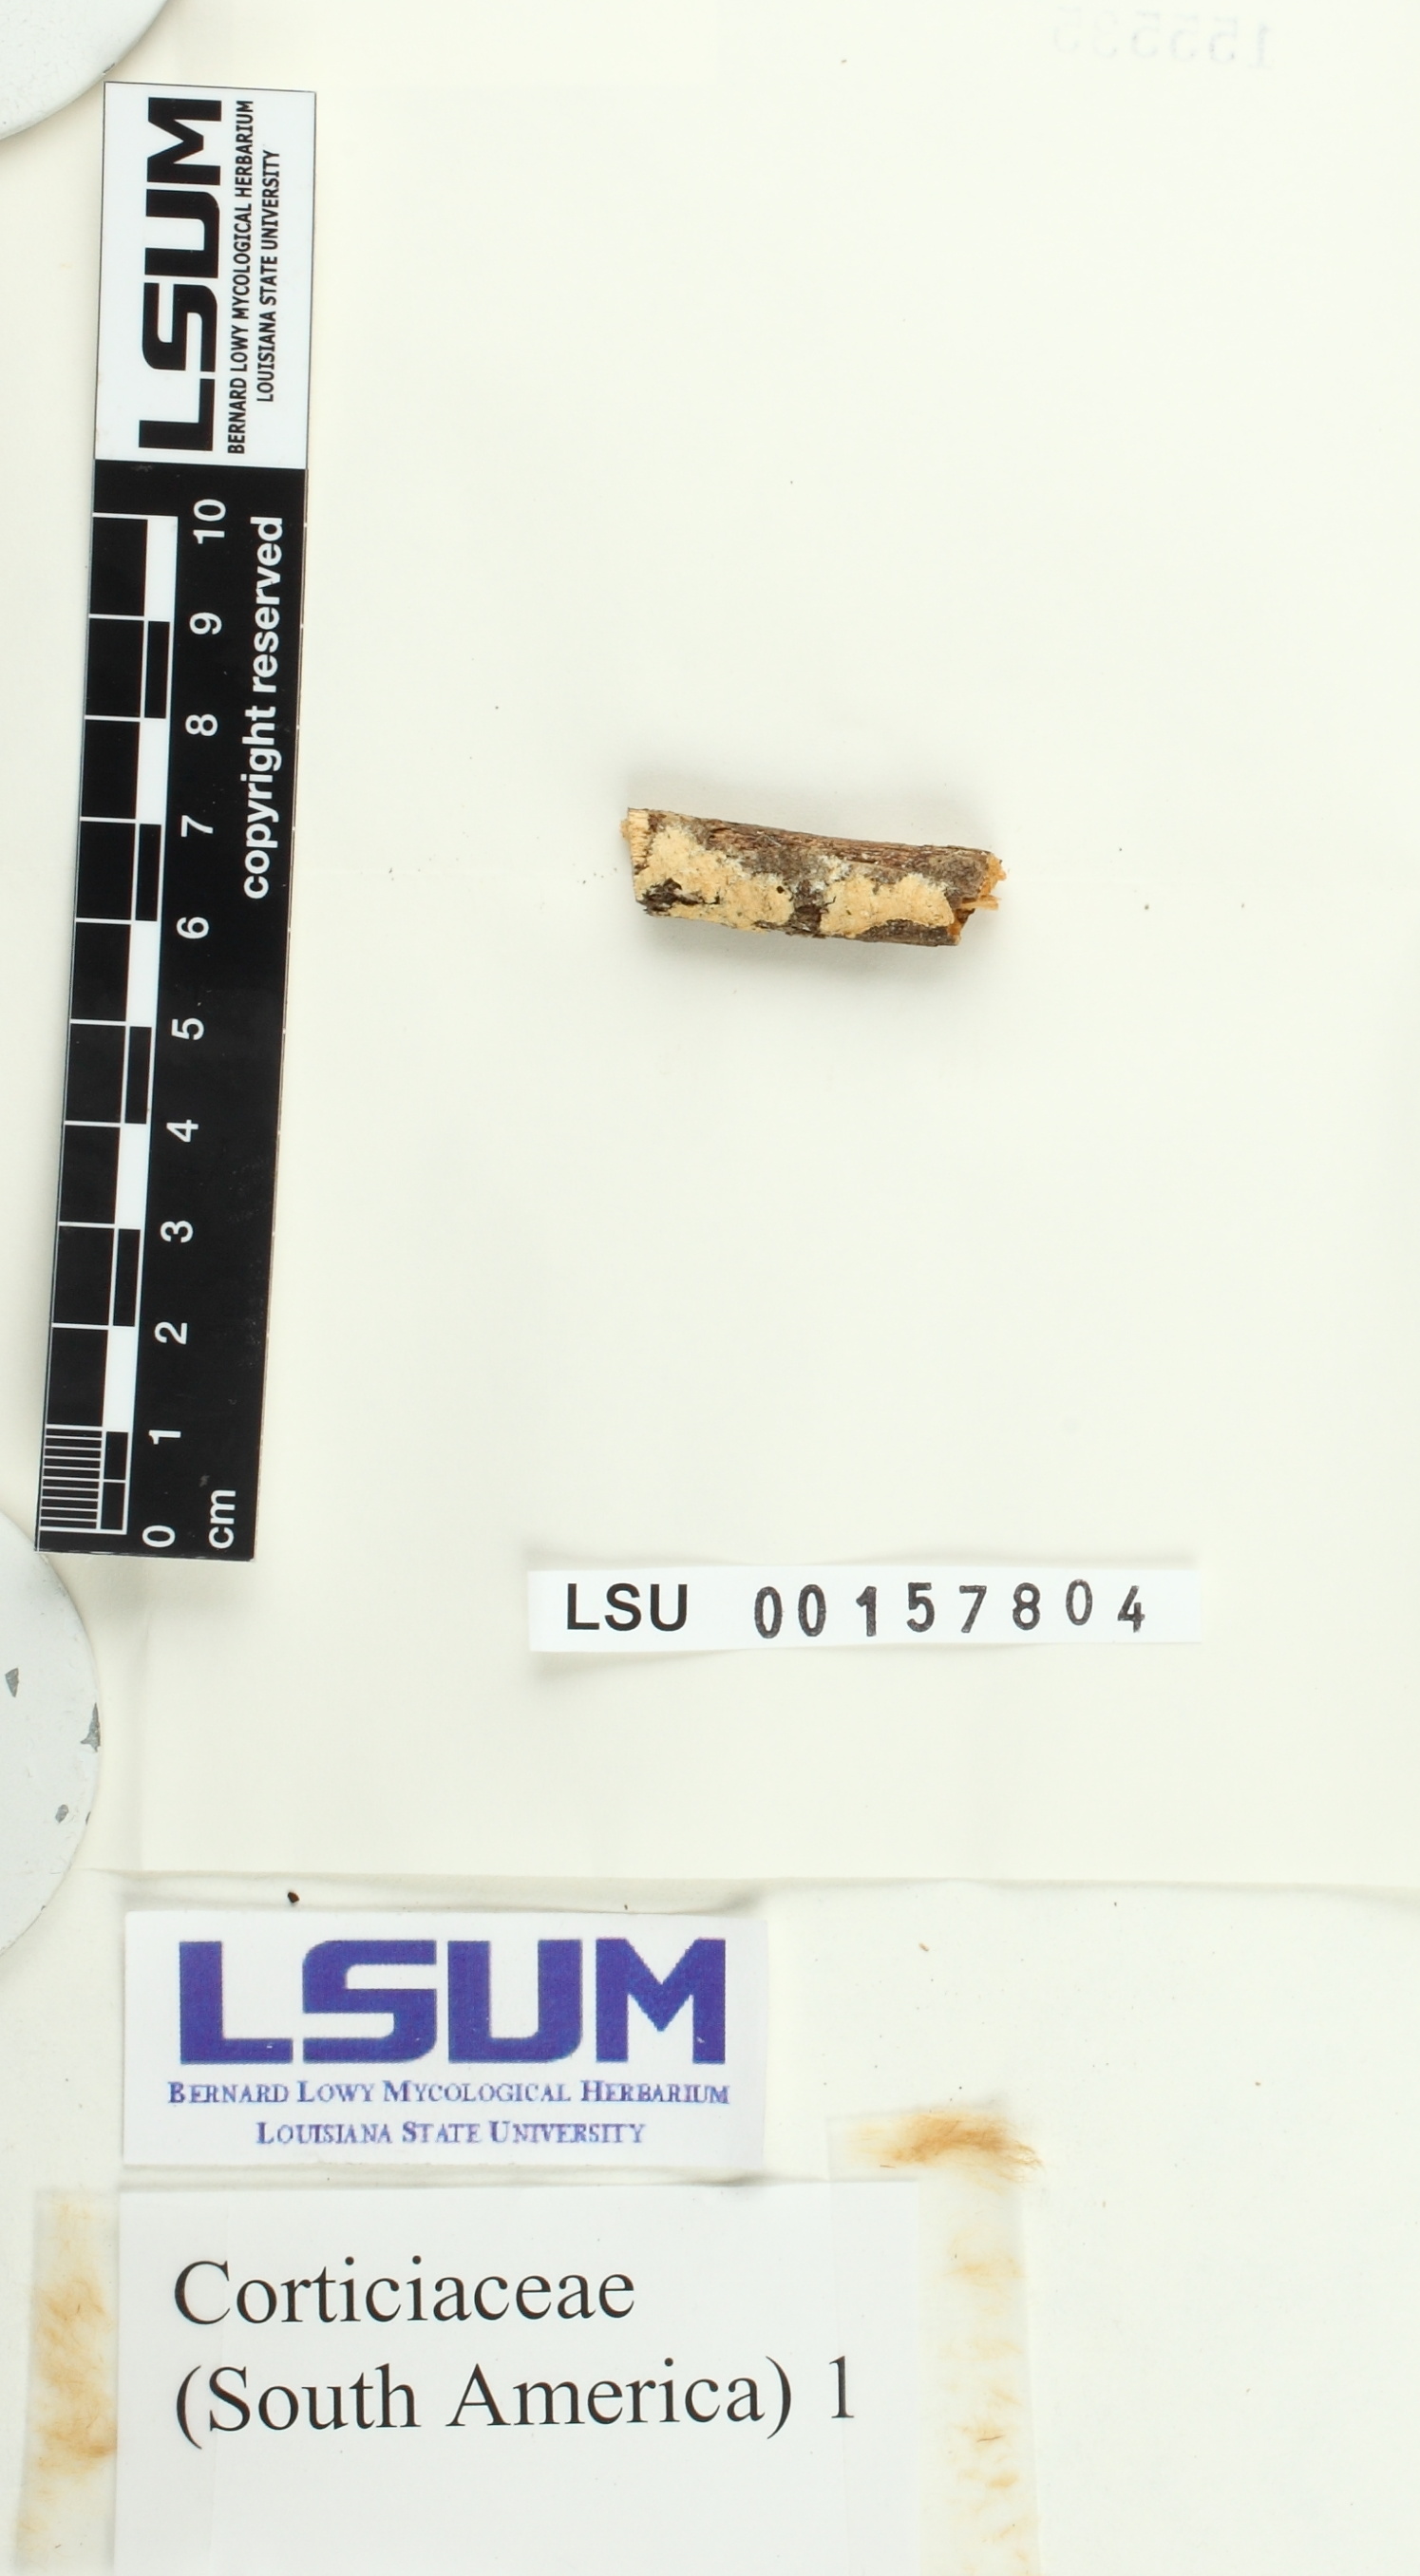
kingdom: Fungi
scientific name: Fungi
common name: Fungi
